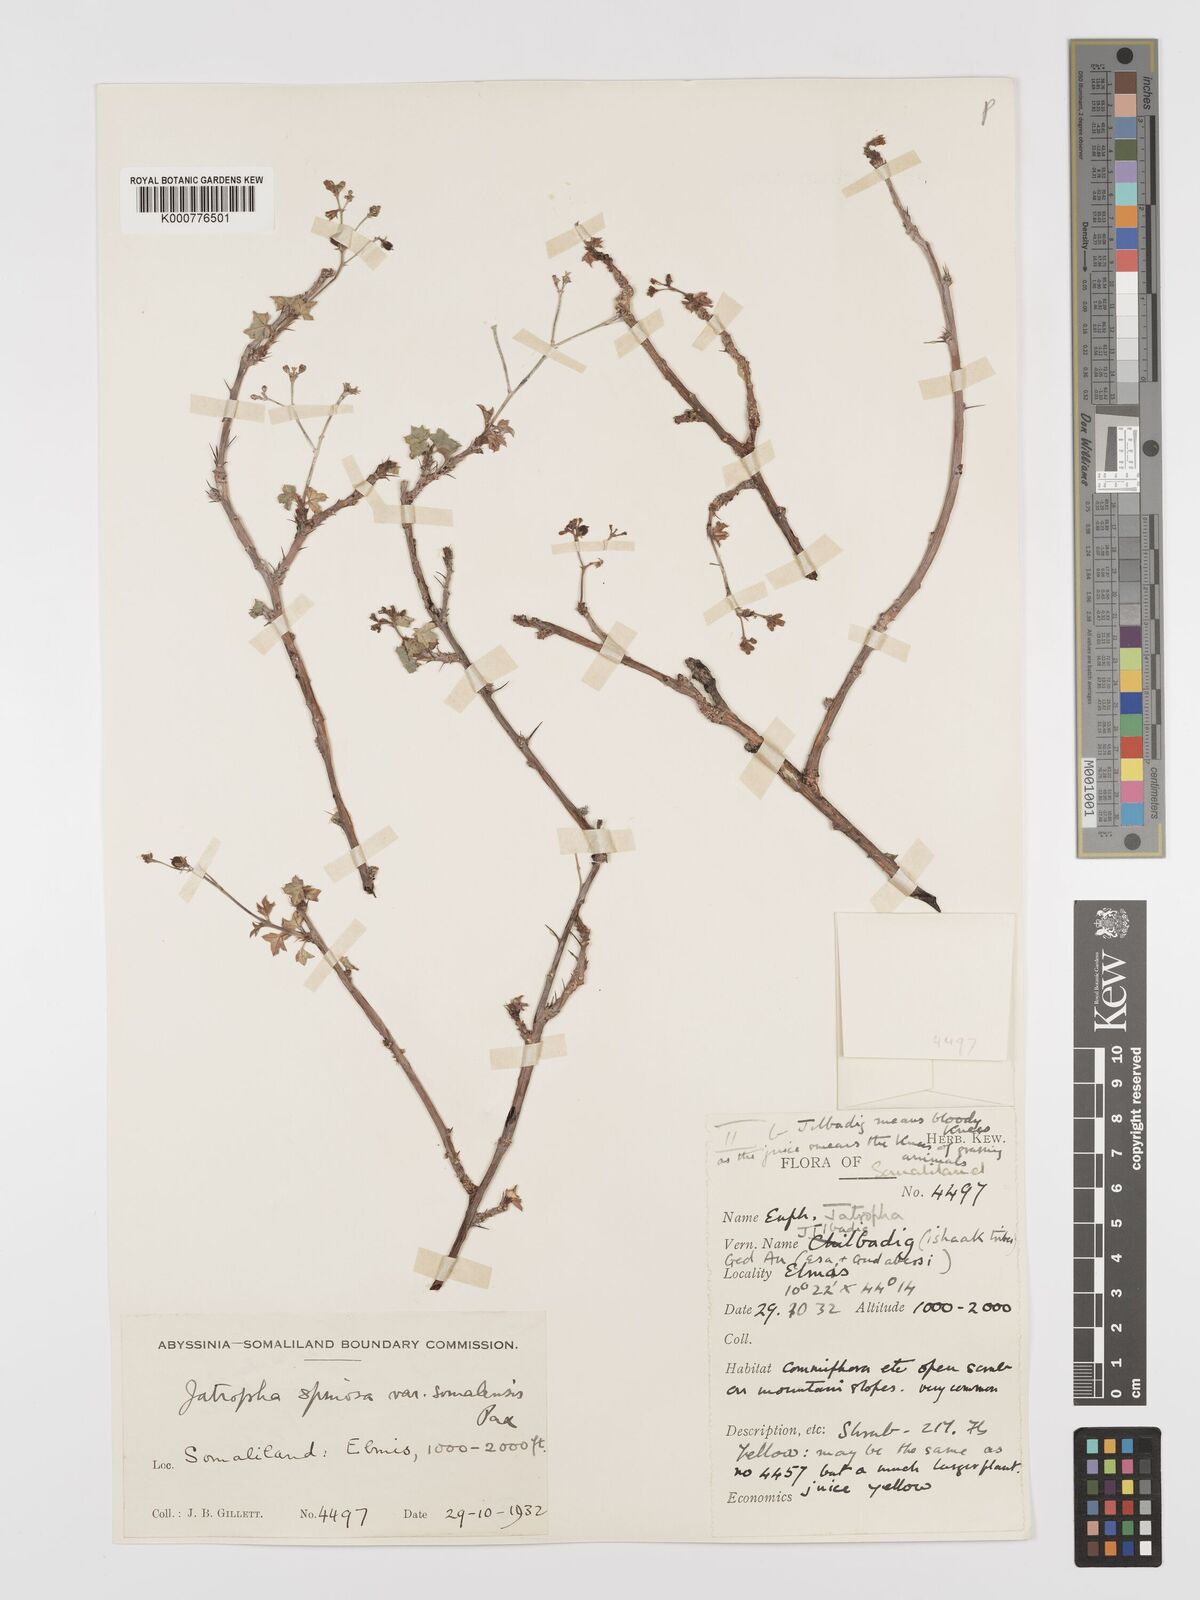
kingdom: Plantae
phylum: Tracheophyta
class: Magnoliopsida
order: Malpighiales
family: Euphorbiaceae
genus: Jatropha
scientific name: Jatropha spinosa
